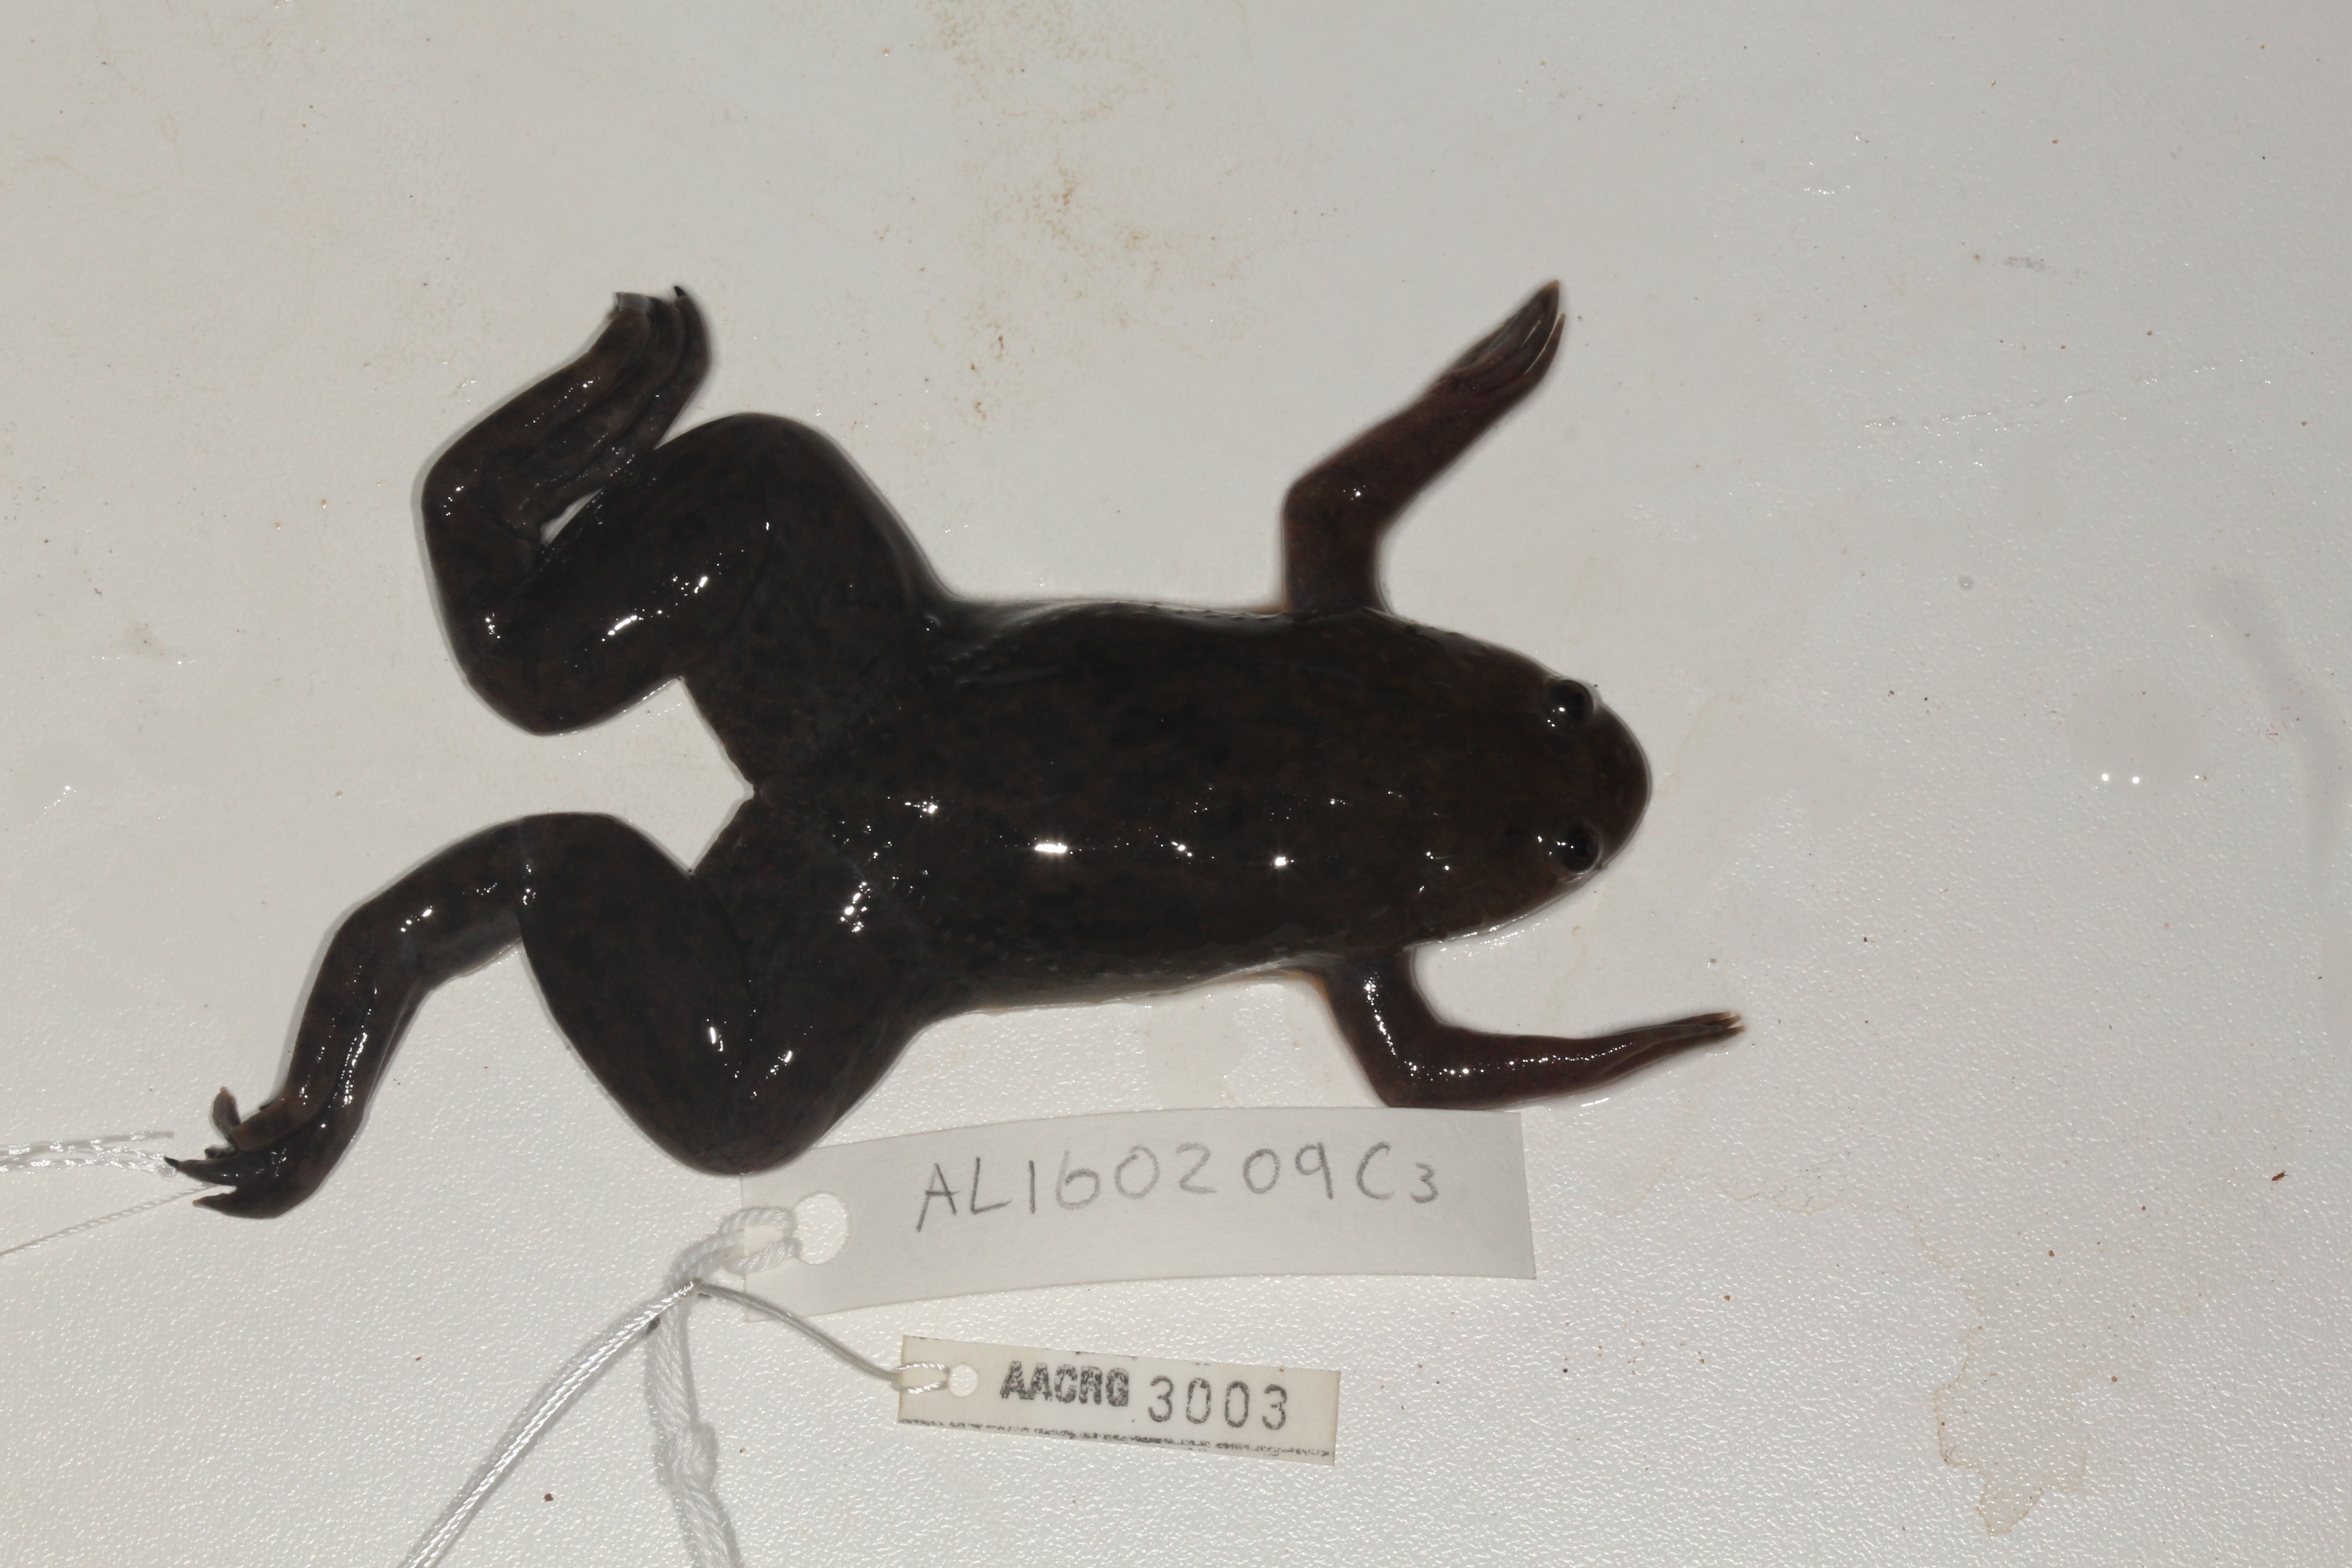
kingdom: Animalia
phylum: Chordata
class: Amphibia
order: Anura
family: Pipidae
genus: Xenopus
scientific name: Xenopus laevis
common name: African clawed frog
